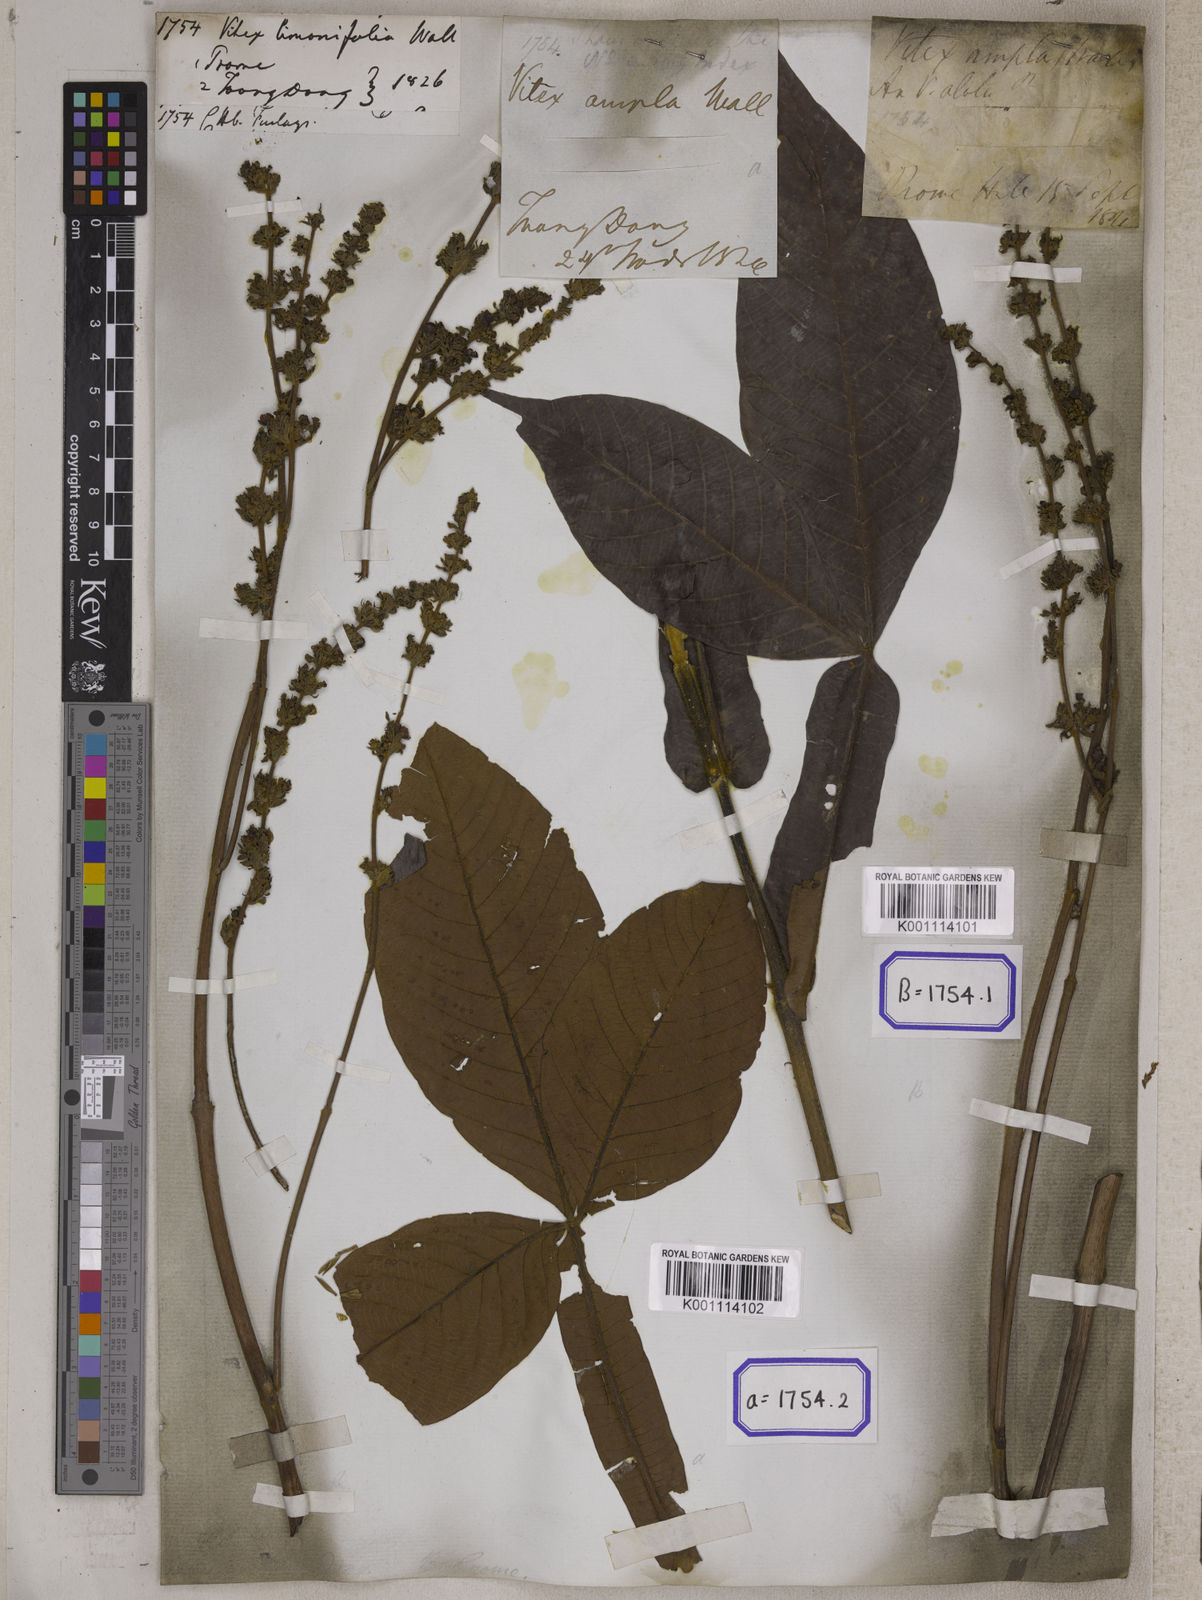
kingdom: Plantae
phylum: Tracheophyta
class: Magnoliopsida
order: Lamiales
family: Lamiaceae
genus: Vitex
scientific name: Vitex
